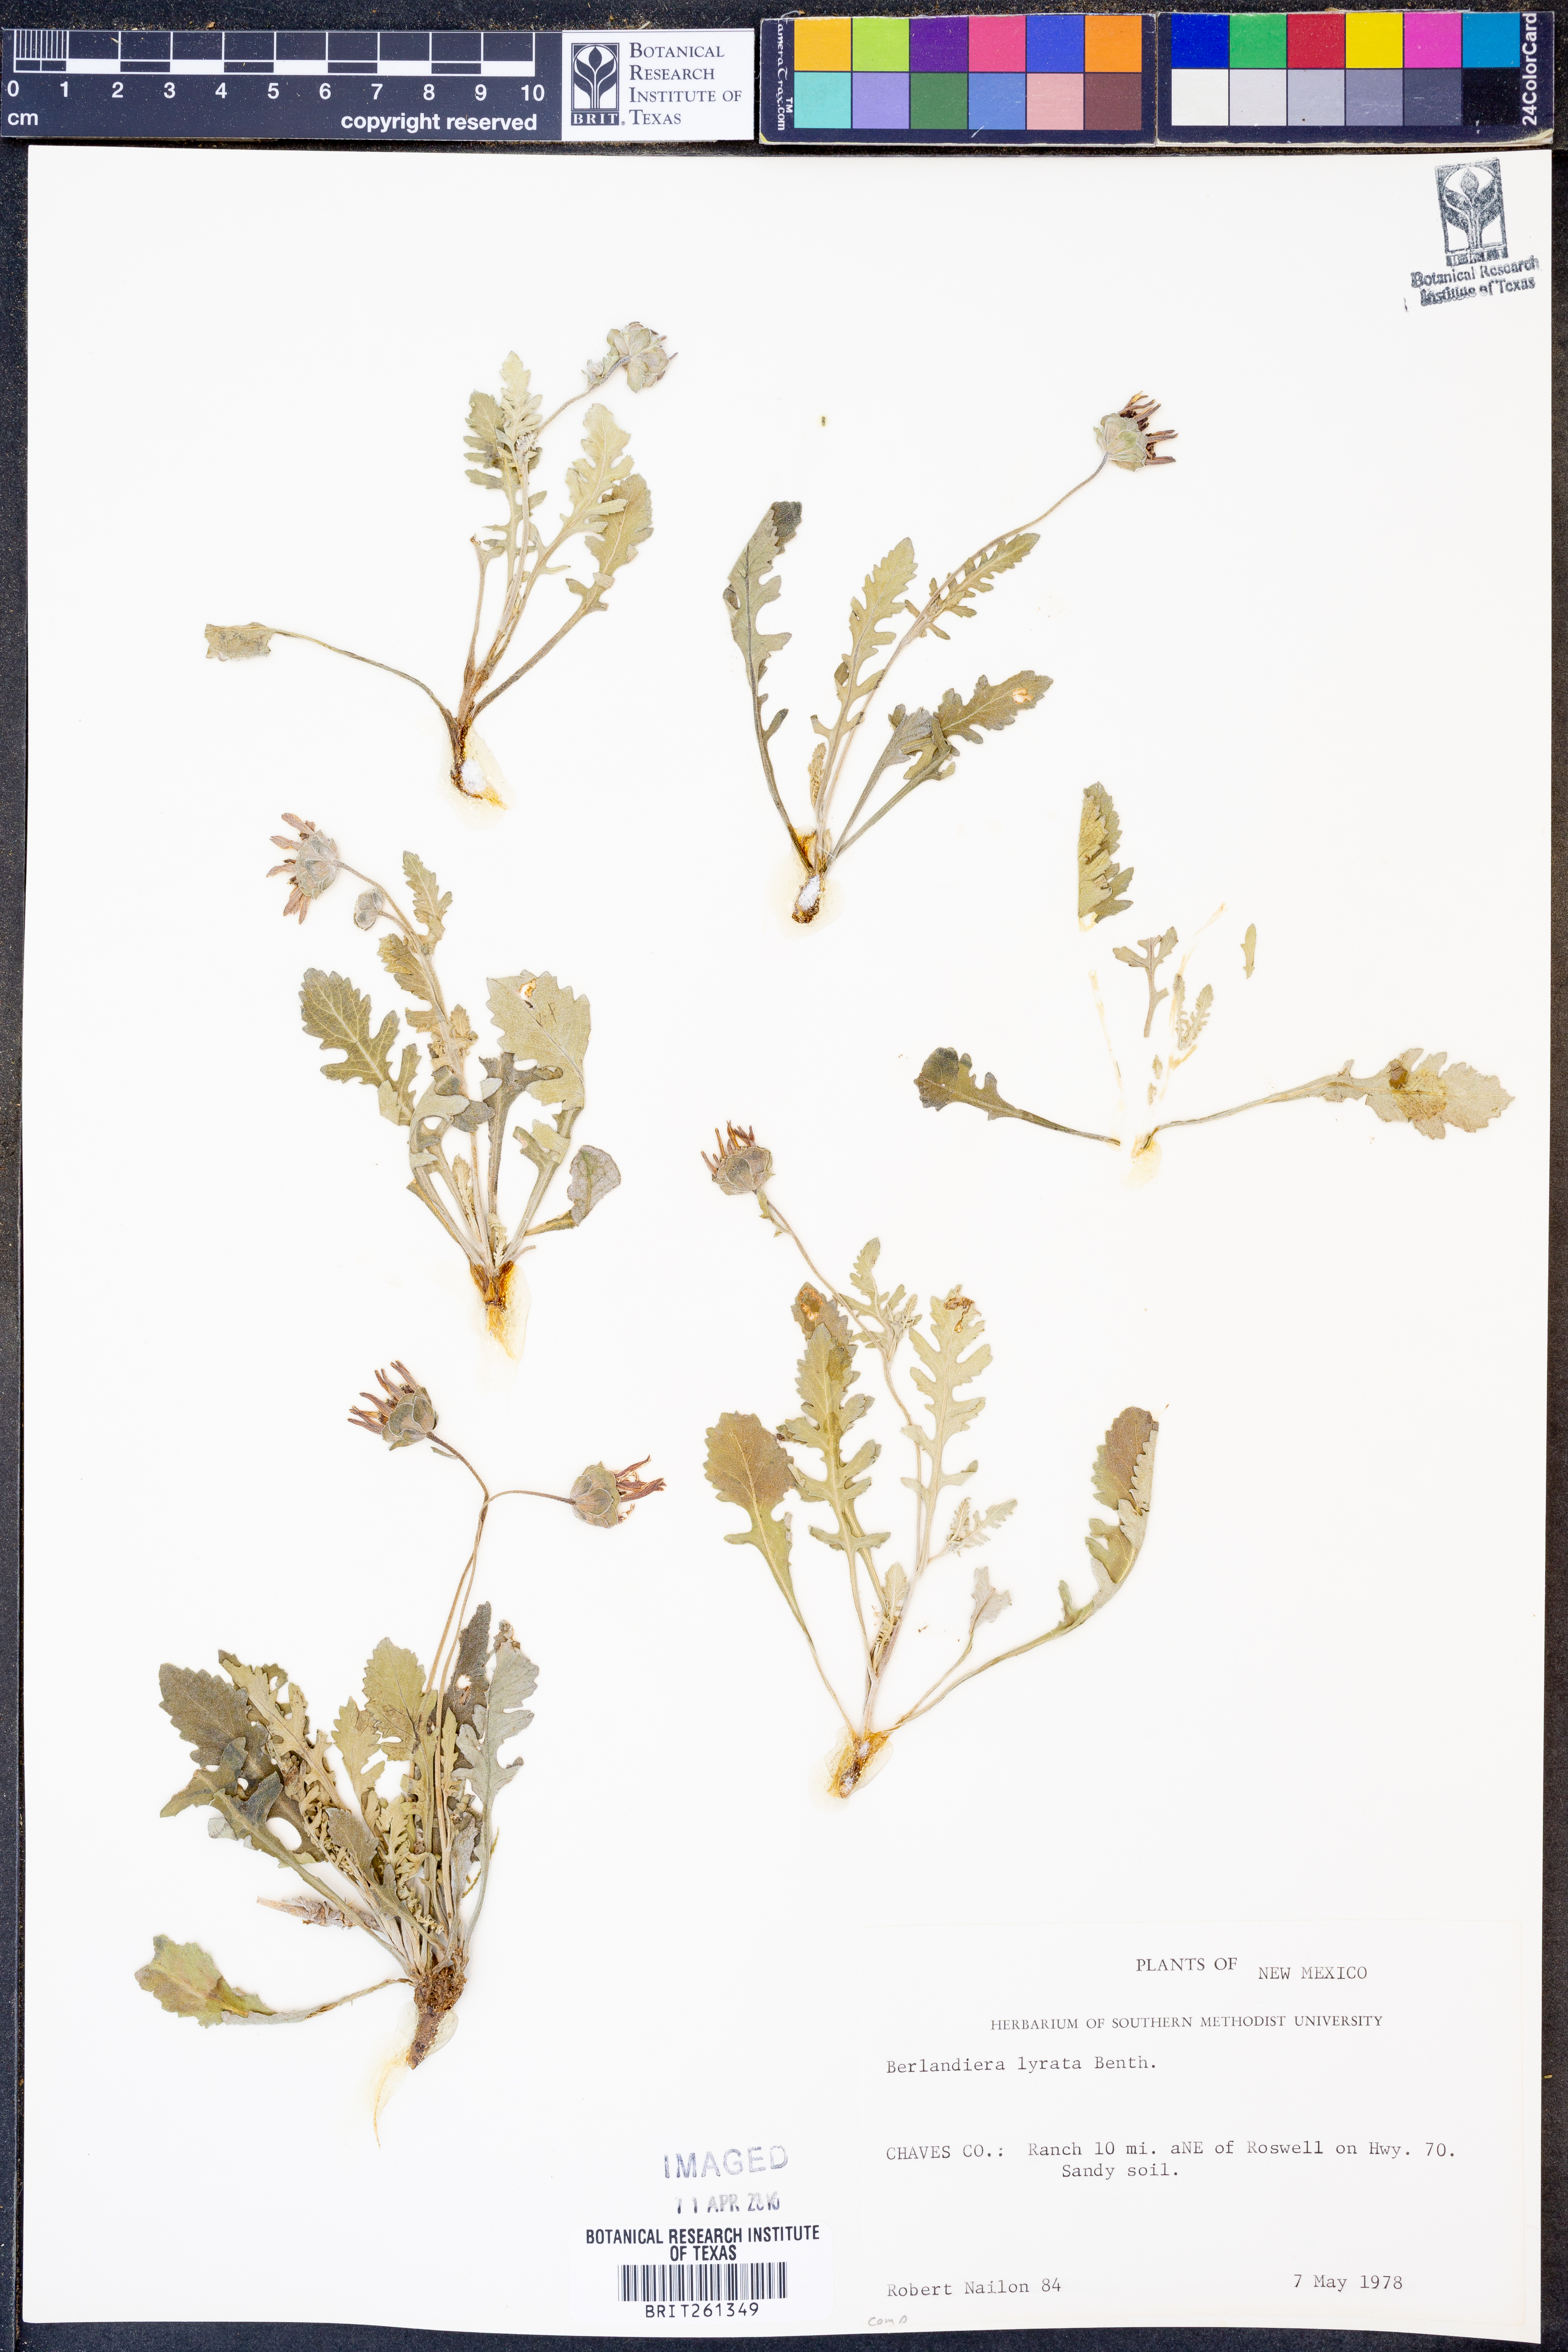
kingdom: Plantae
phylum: Tracheophyta
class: Magnoliopsida
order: Asterales
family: Asteraceae
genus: Berlandiera
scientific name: Berlandiera lyrata
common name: Chocolate-flower
